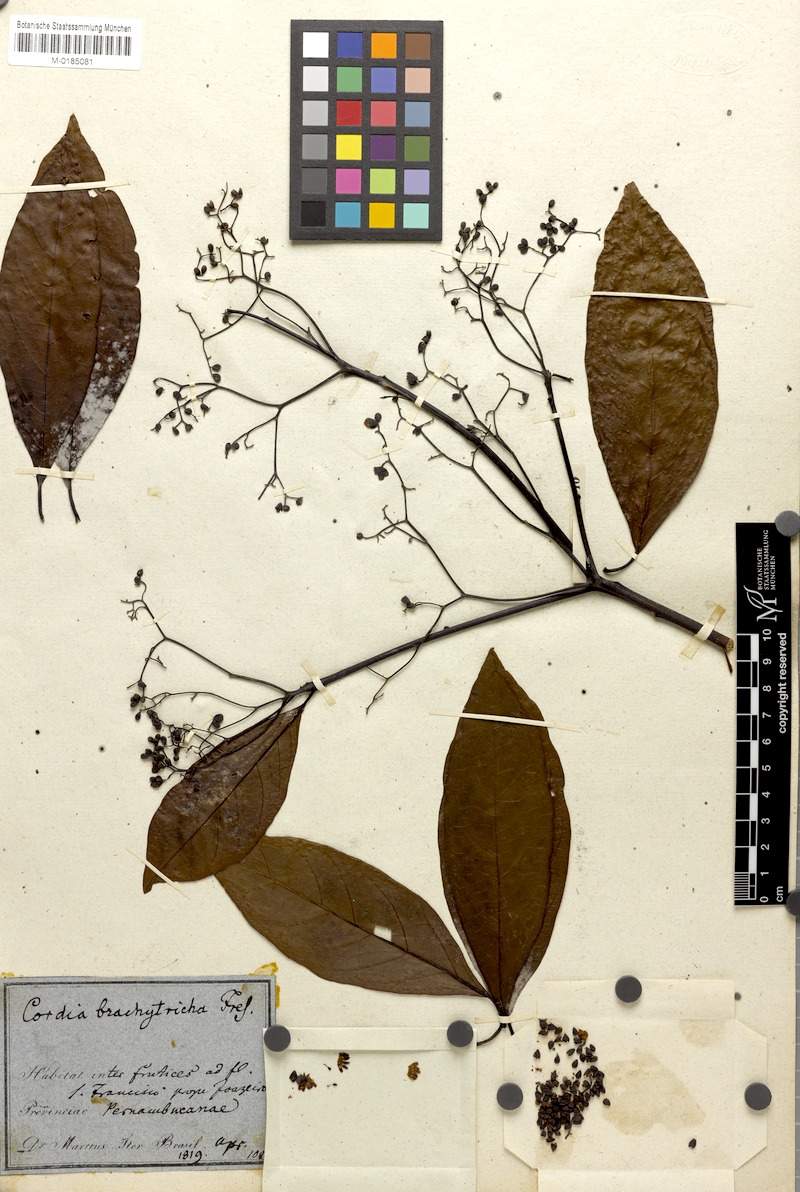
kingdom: Plantae
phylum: Tracheophyta
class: Magnoliopsida
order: Boraginales
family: Cordiaceae
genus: Cordia
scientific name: Cordia brachytricha
